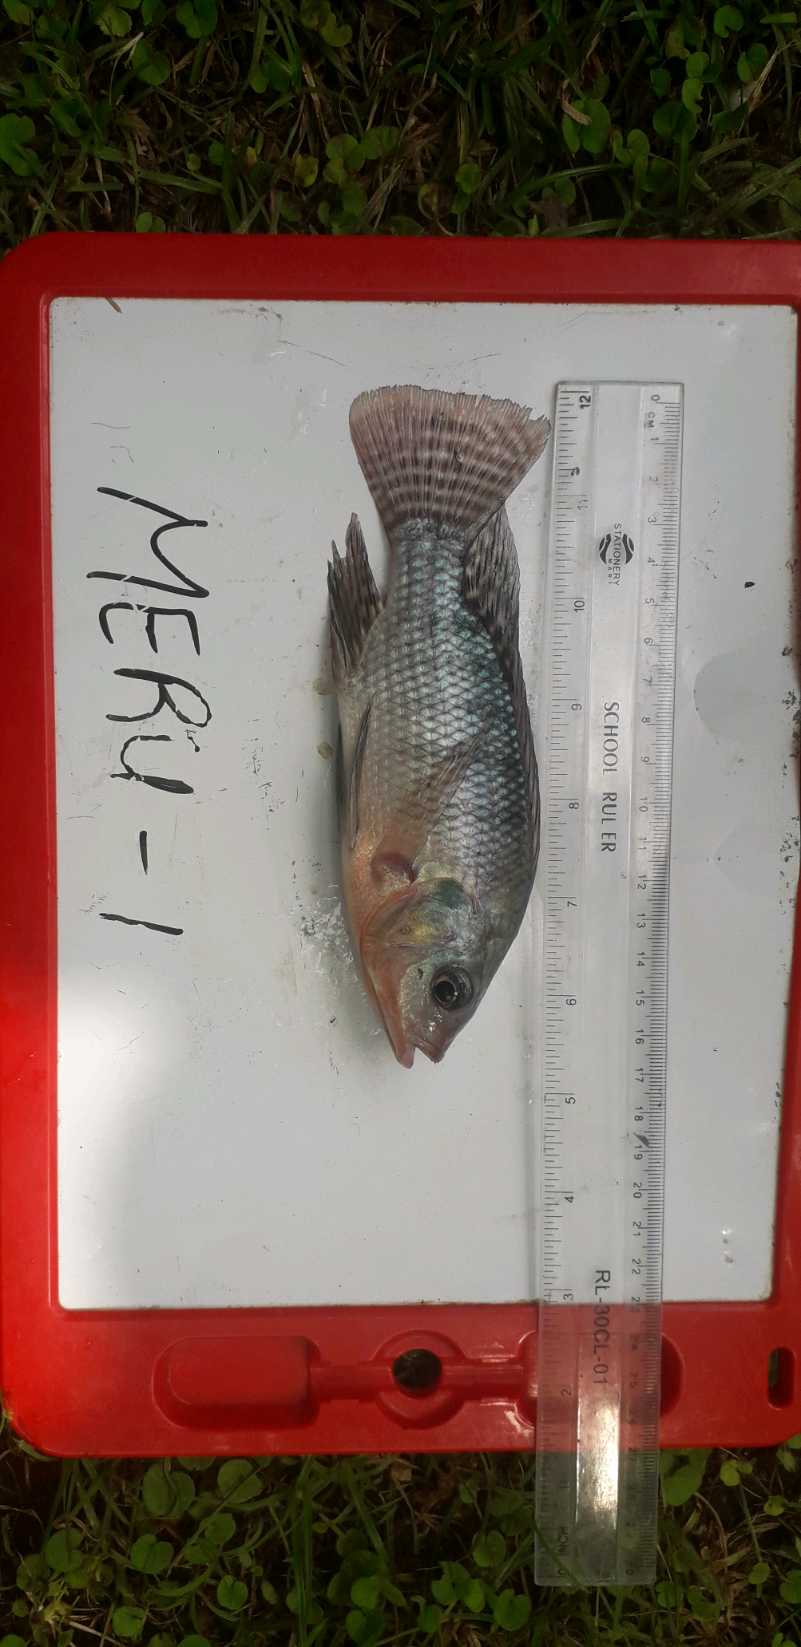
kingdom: Animalia
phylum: Chordata
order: Perciformes
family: Cichlidae
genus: Oreochromis
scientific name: Oreochromis niloticus
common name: Nile tilapia
